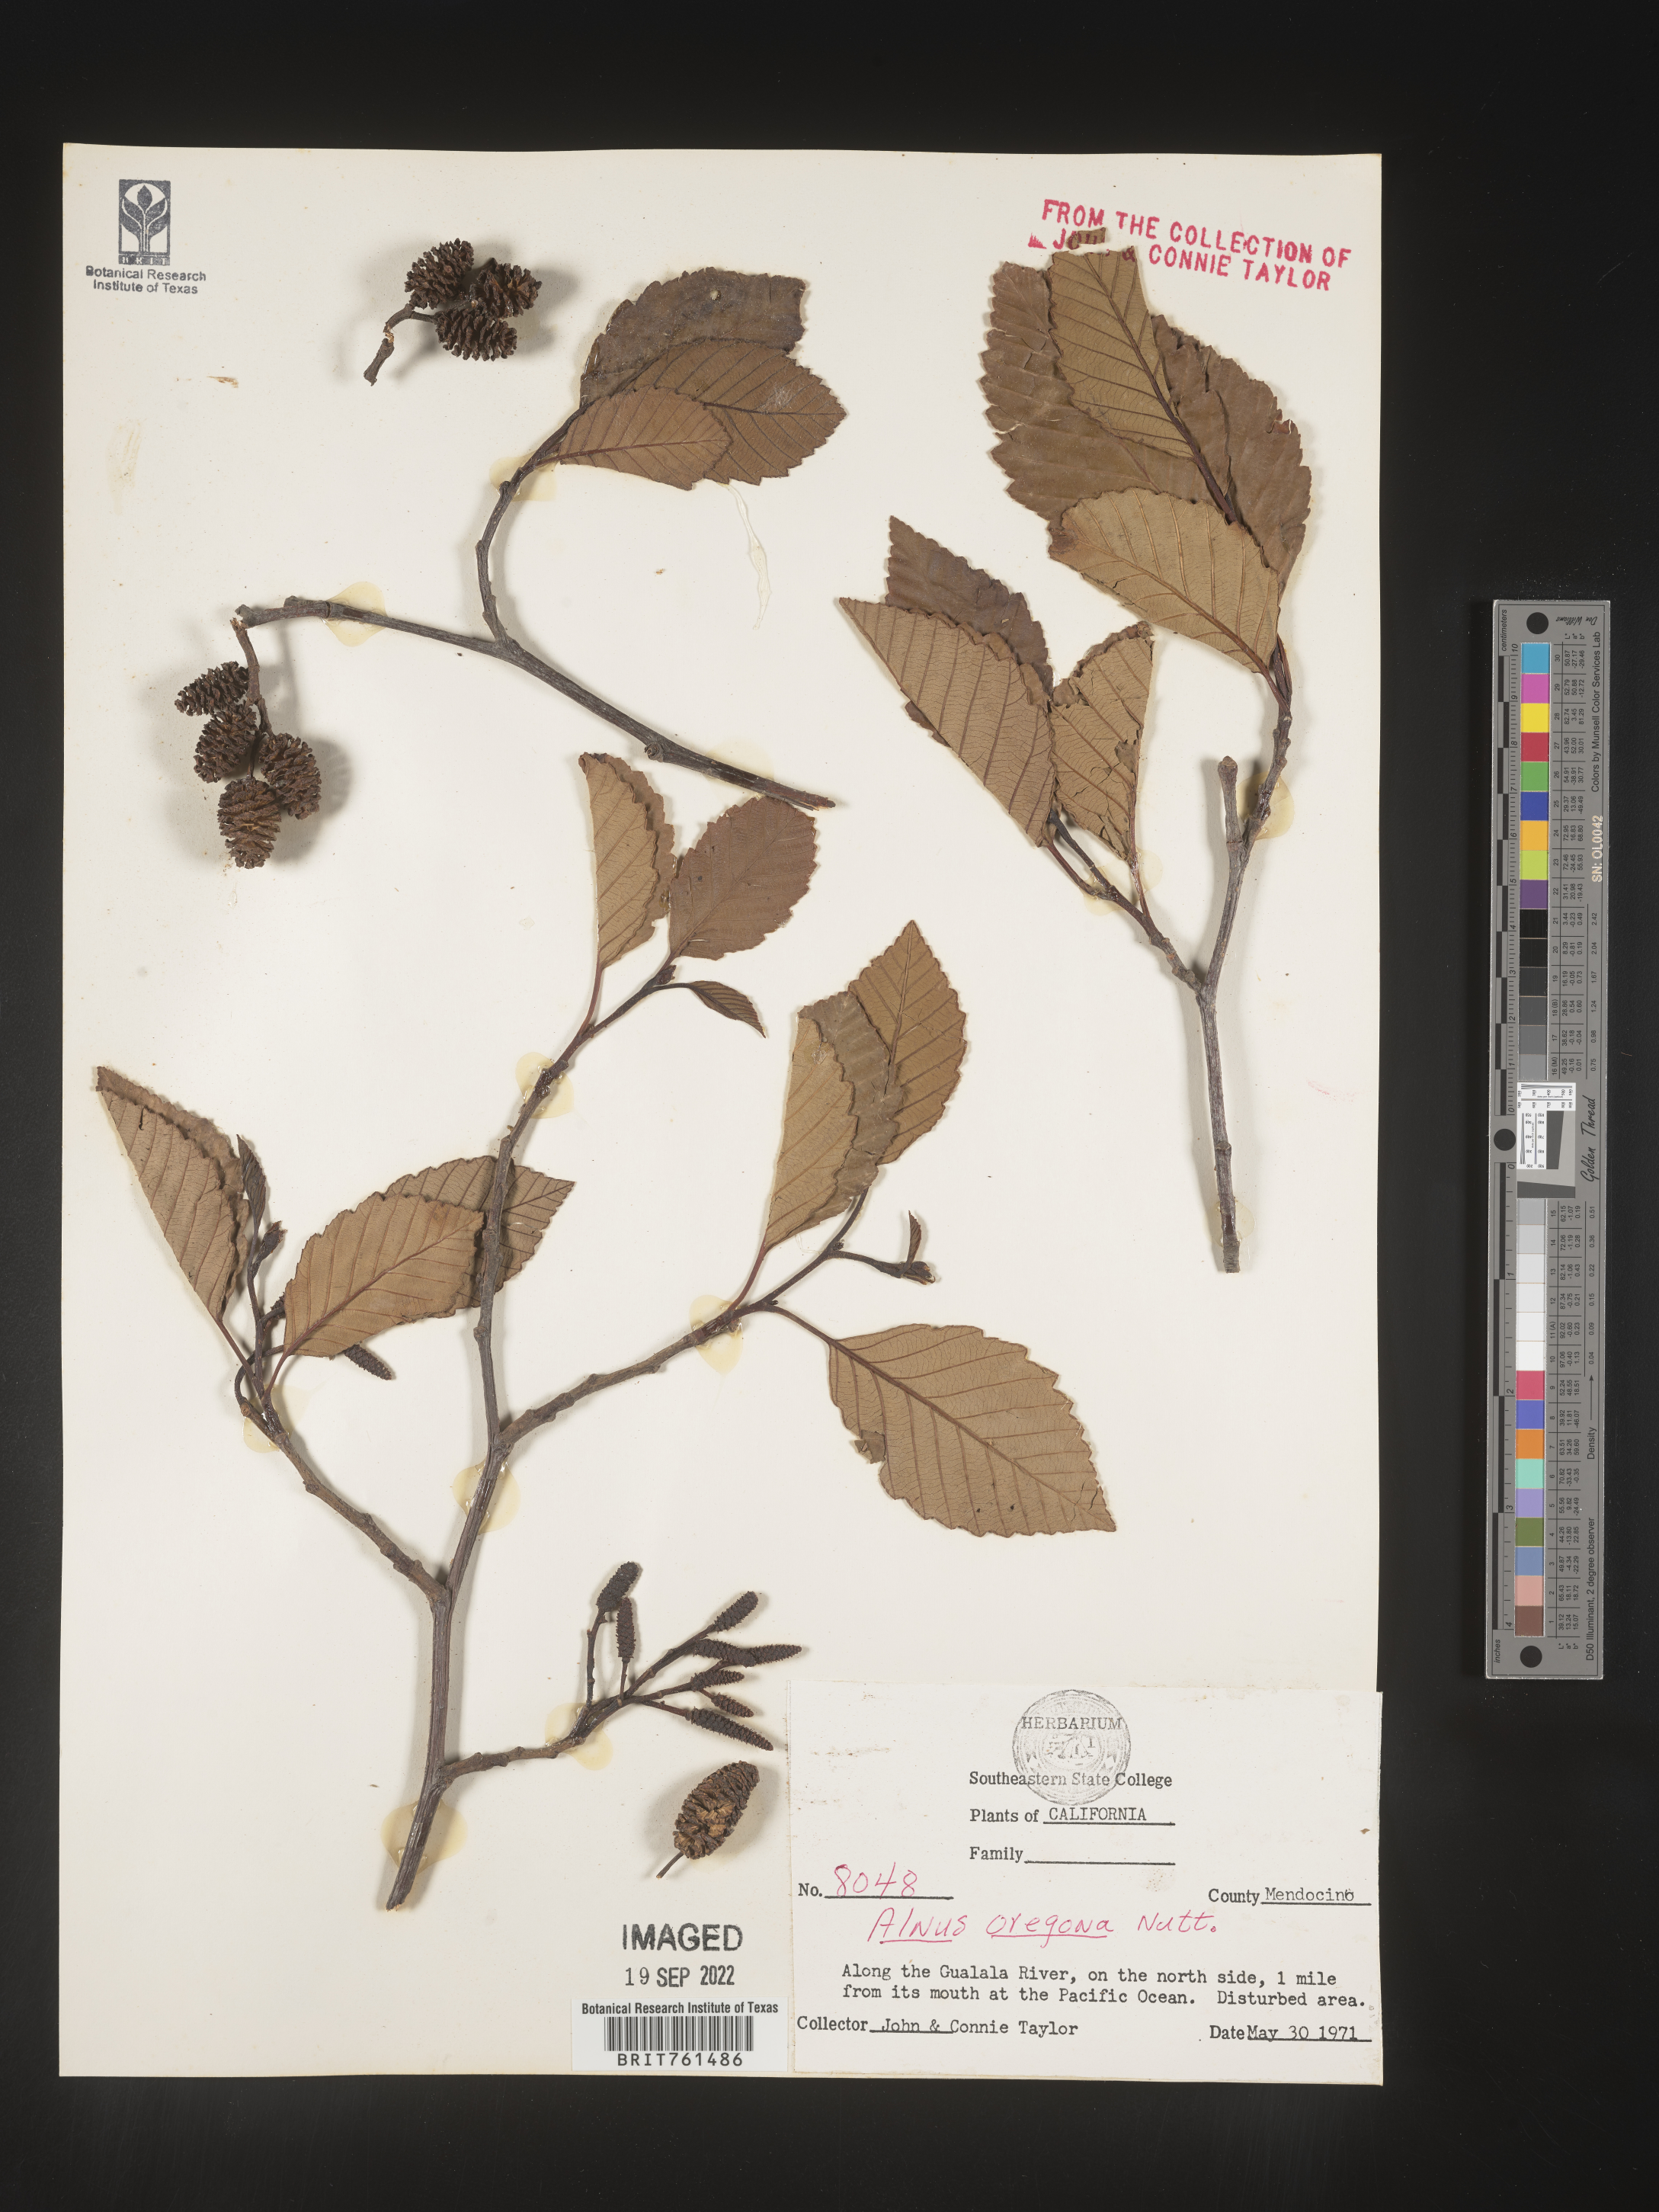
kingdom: Plantae
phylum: Tracheophyta
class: Magnoliopsida
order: Fagales
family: Betulaceae
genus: Alnus
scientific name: Alnus
